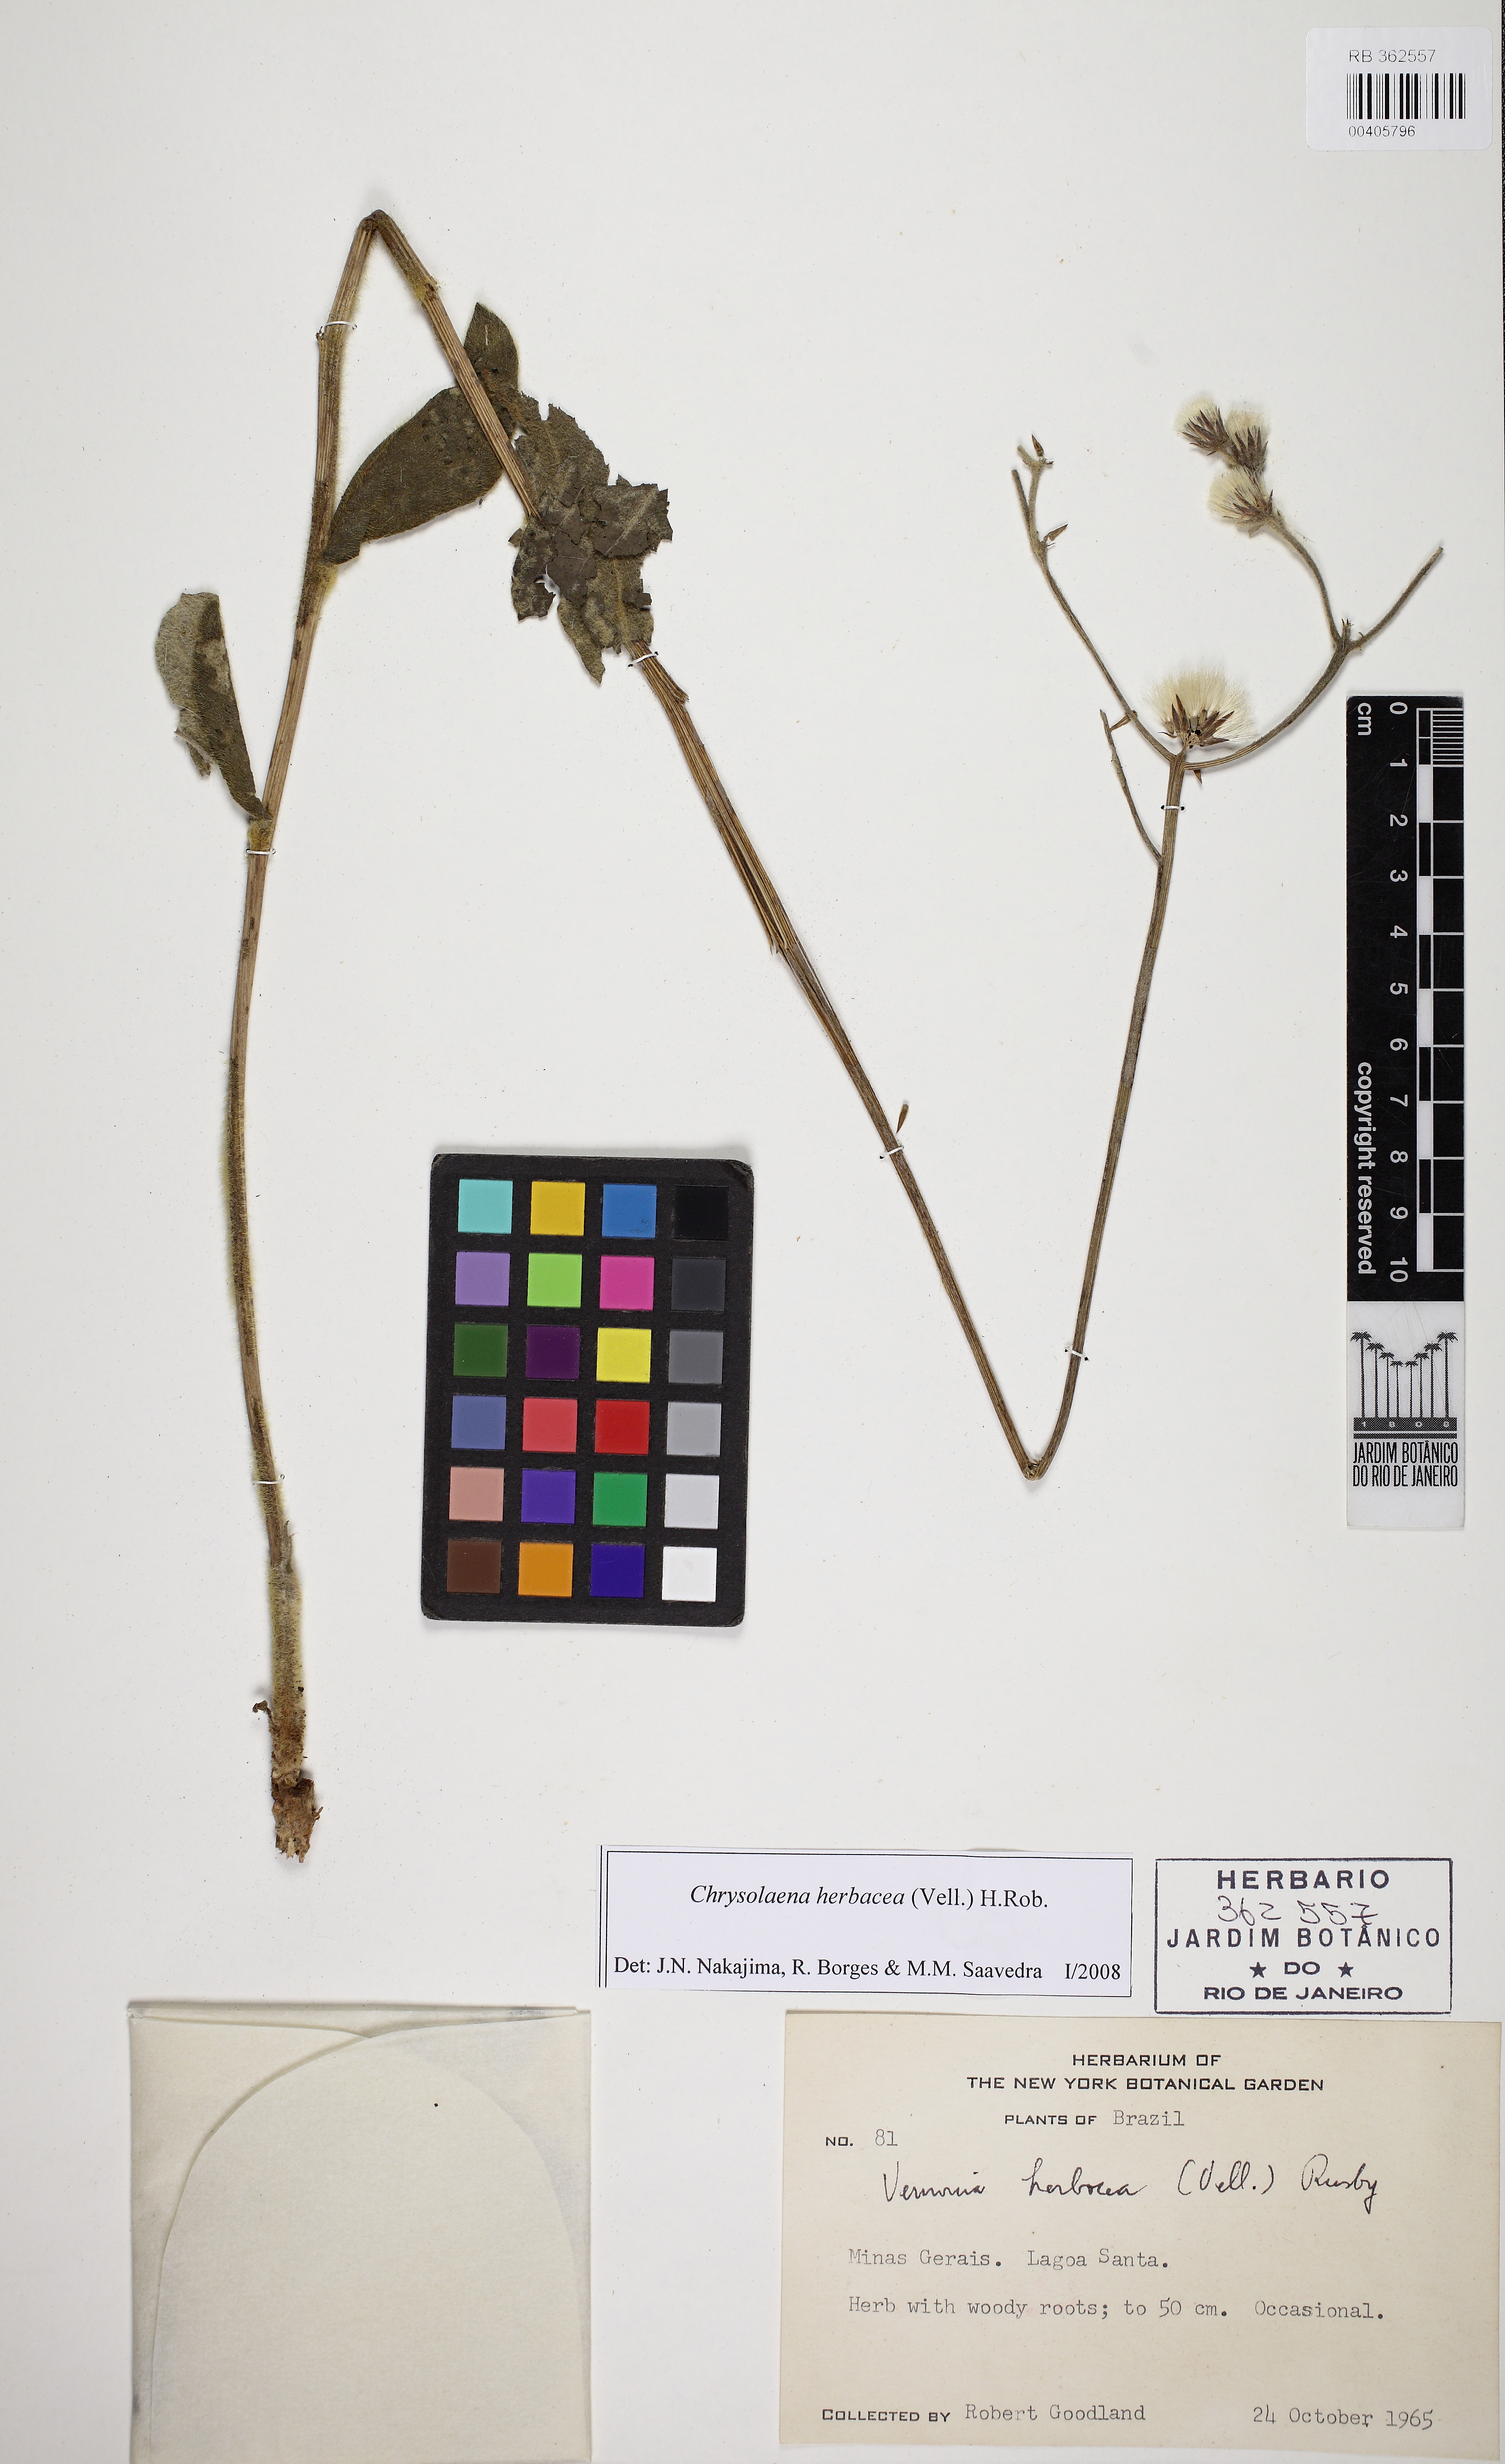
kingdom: Plantae
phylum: Tracheophyta
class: Magnoliopsida
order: Asterales
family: Asteraceae
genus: Chrysolaena
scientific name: Chrysolaena obovata
